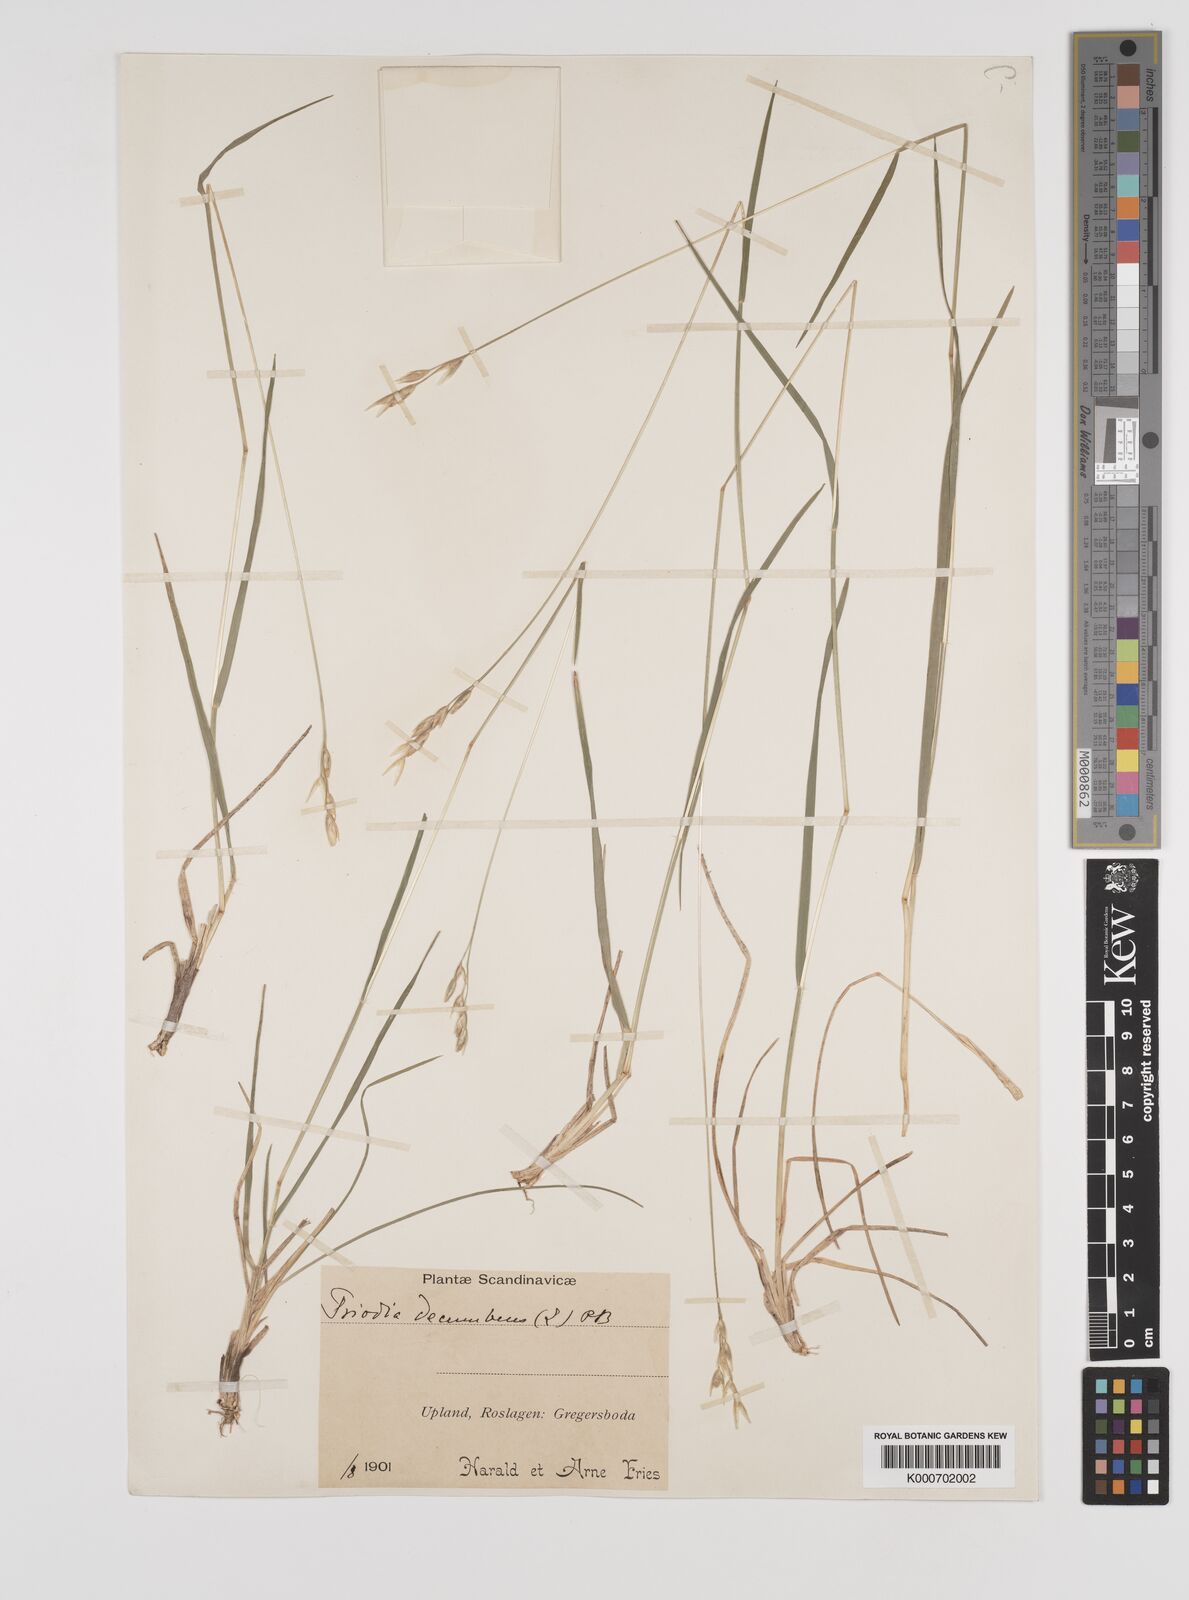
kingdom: Plantae
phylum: Tracheophyta
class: Liliopsida
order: Poales
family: Poaceae
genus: Danthonia
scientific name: Danthonia decumbens
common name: Common heathgrass
